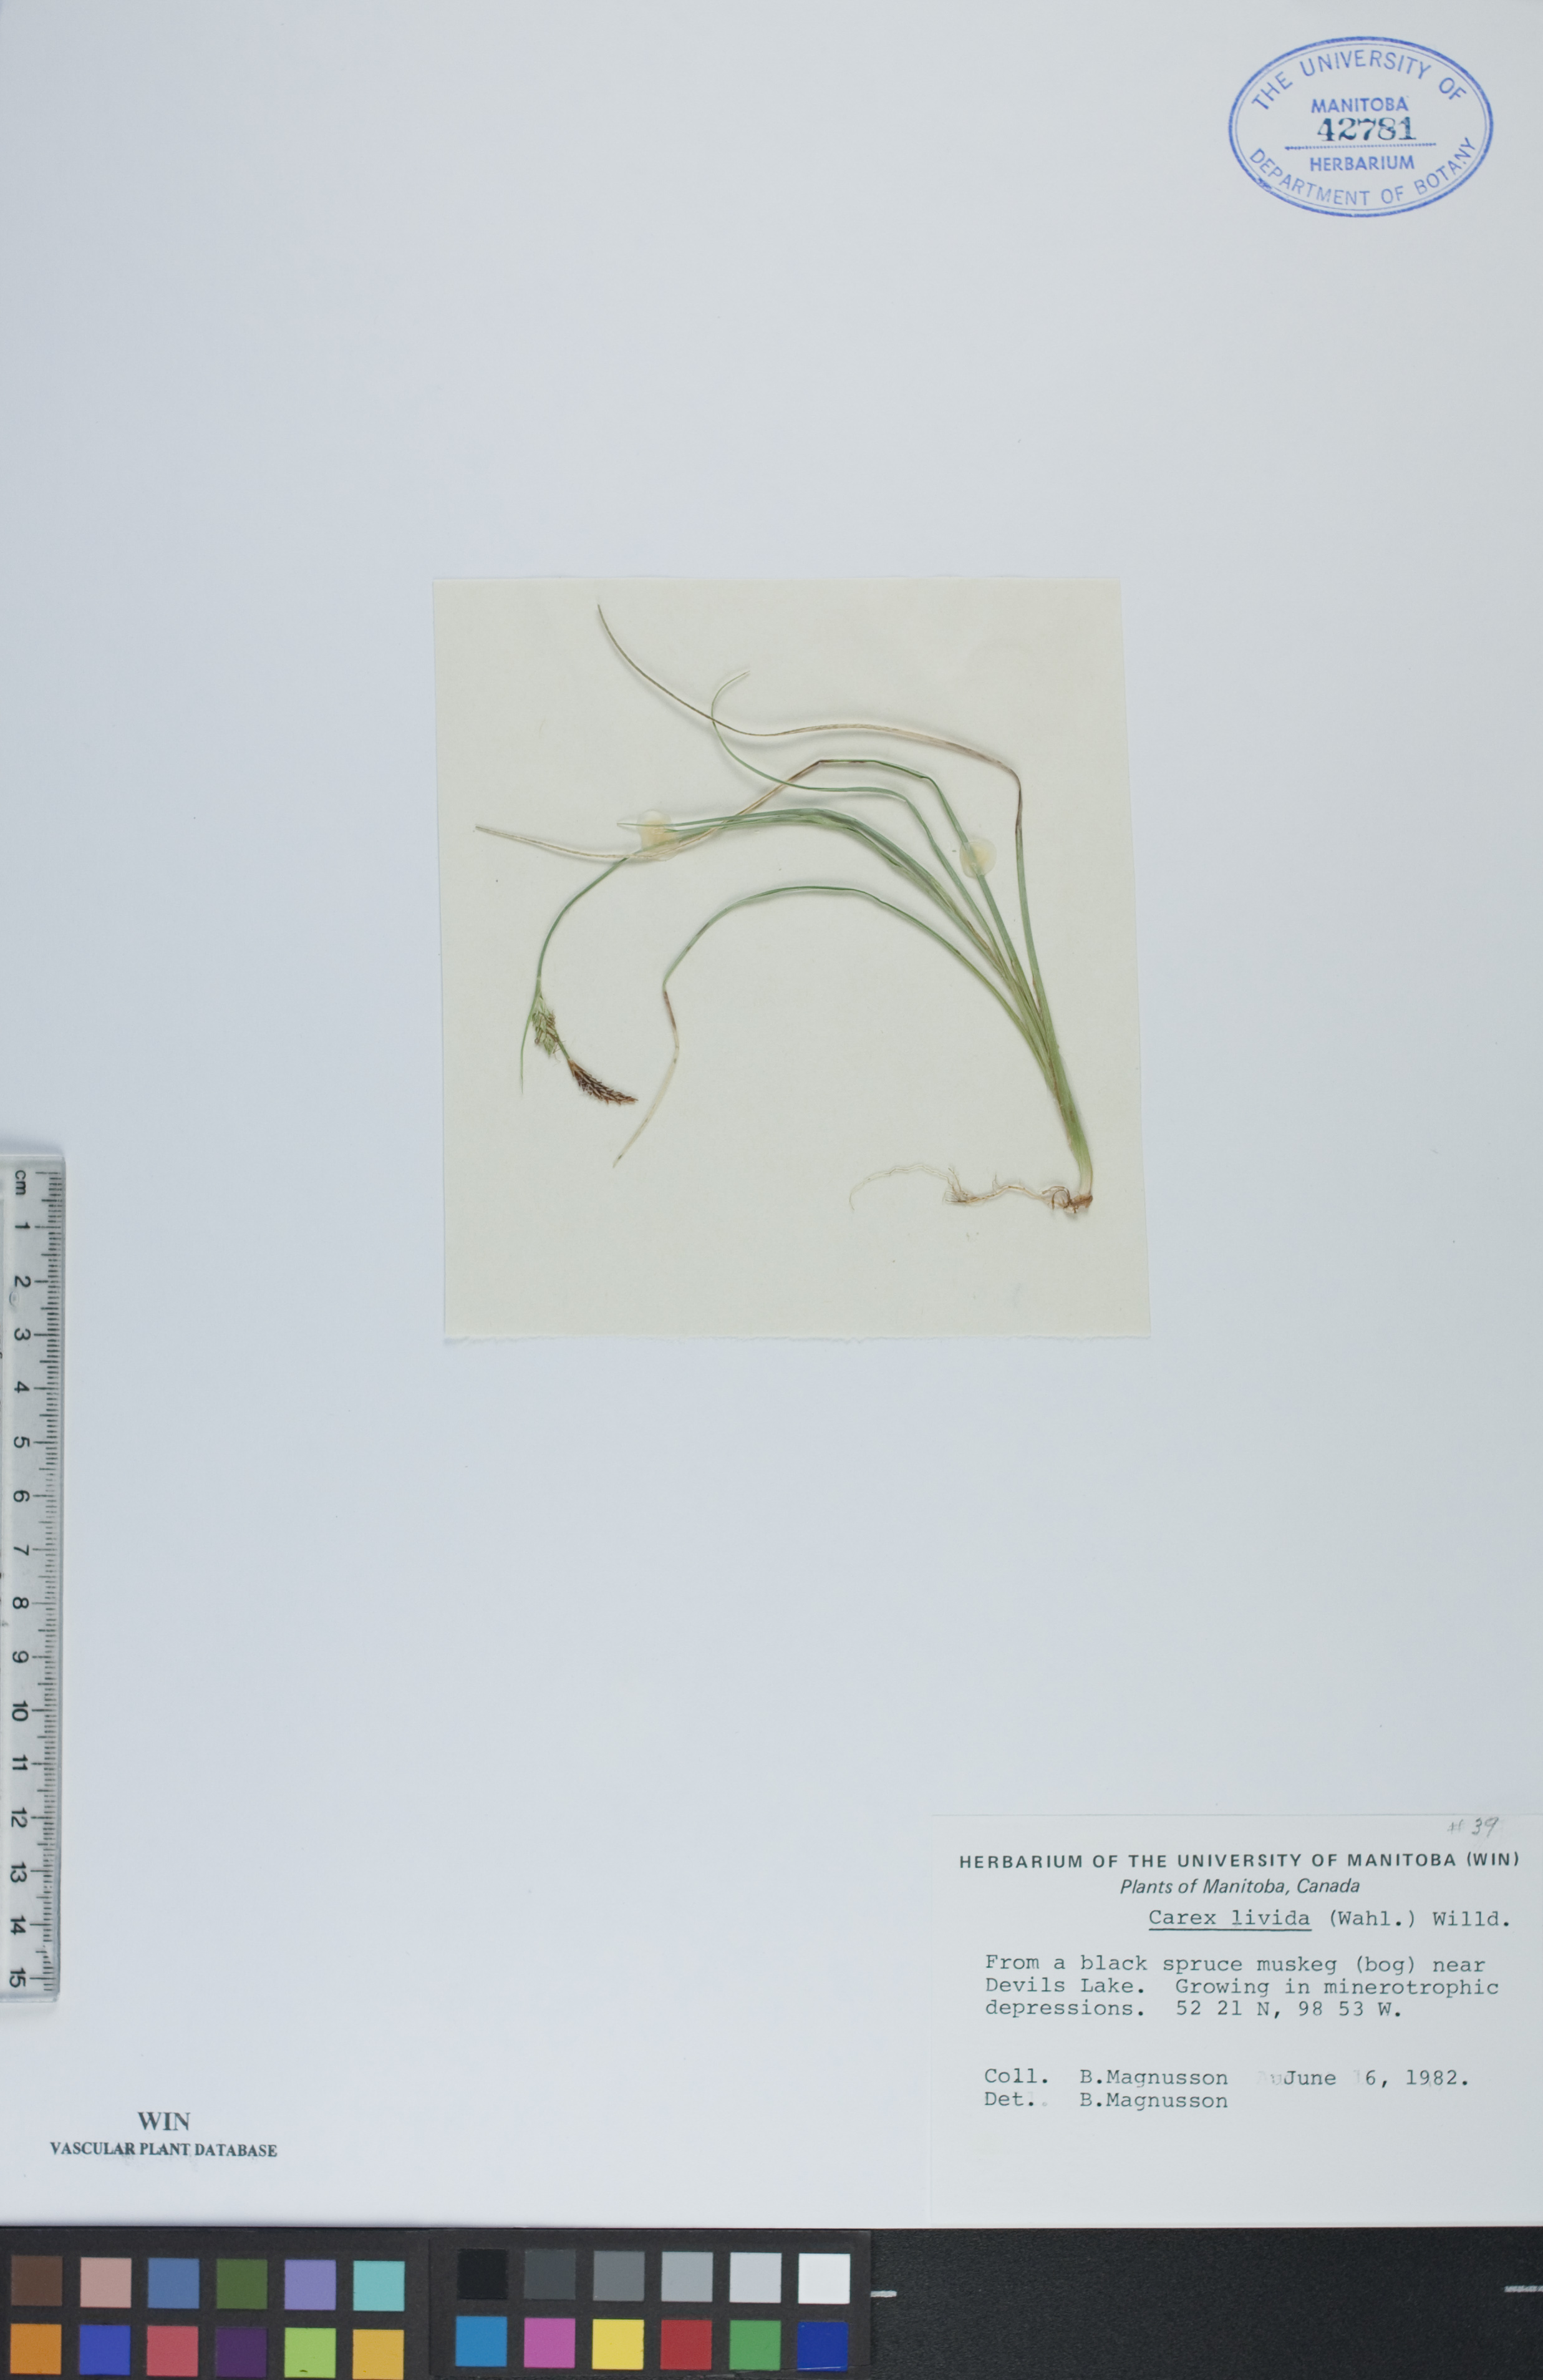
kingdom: Plantae
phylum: Tracheophyta
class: Liliopsida
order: Poales
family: Cyperaceae
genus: Carex
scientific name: Carex livida
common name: Livid sedge
